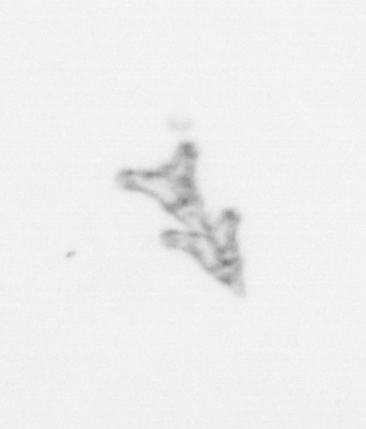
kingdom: Animalia
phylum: Cnidaria
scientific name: Cnidaria
